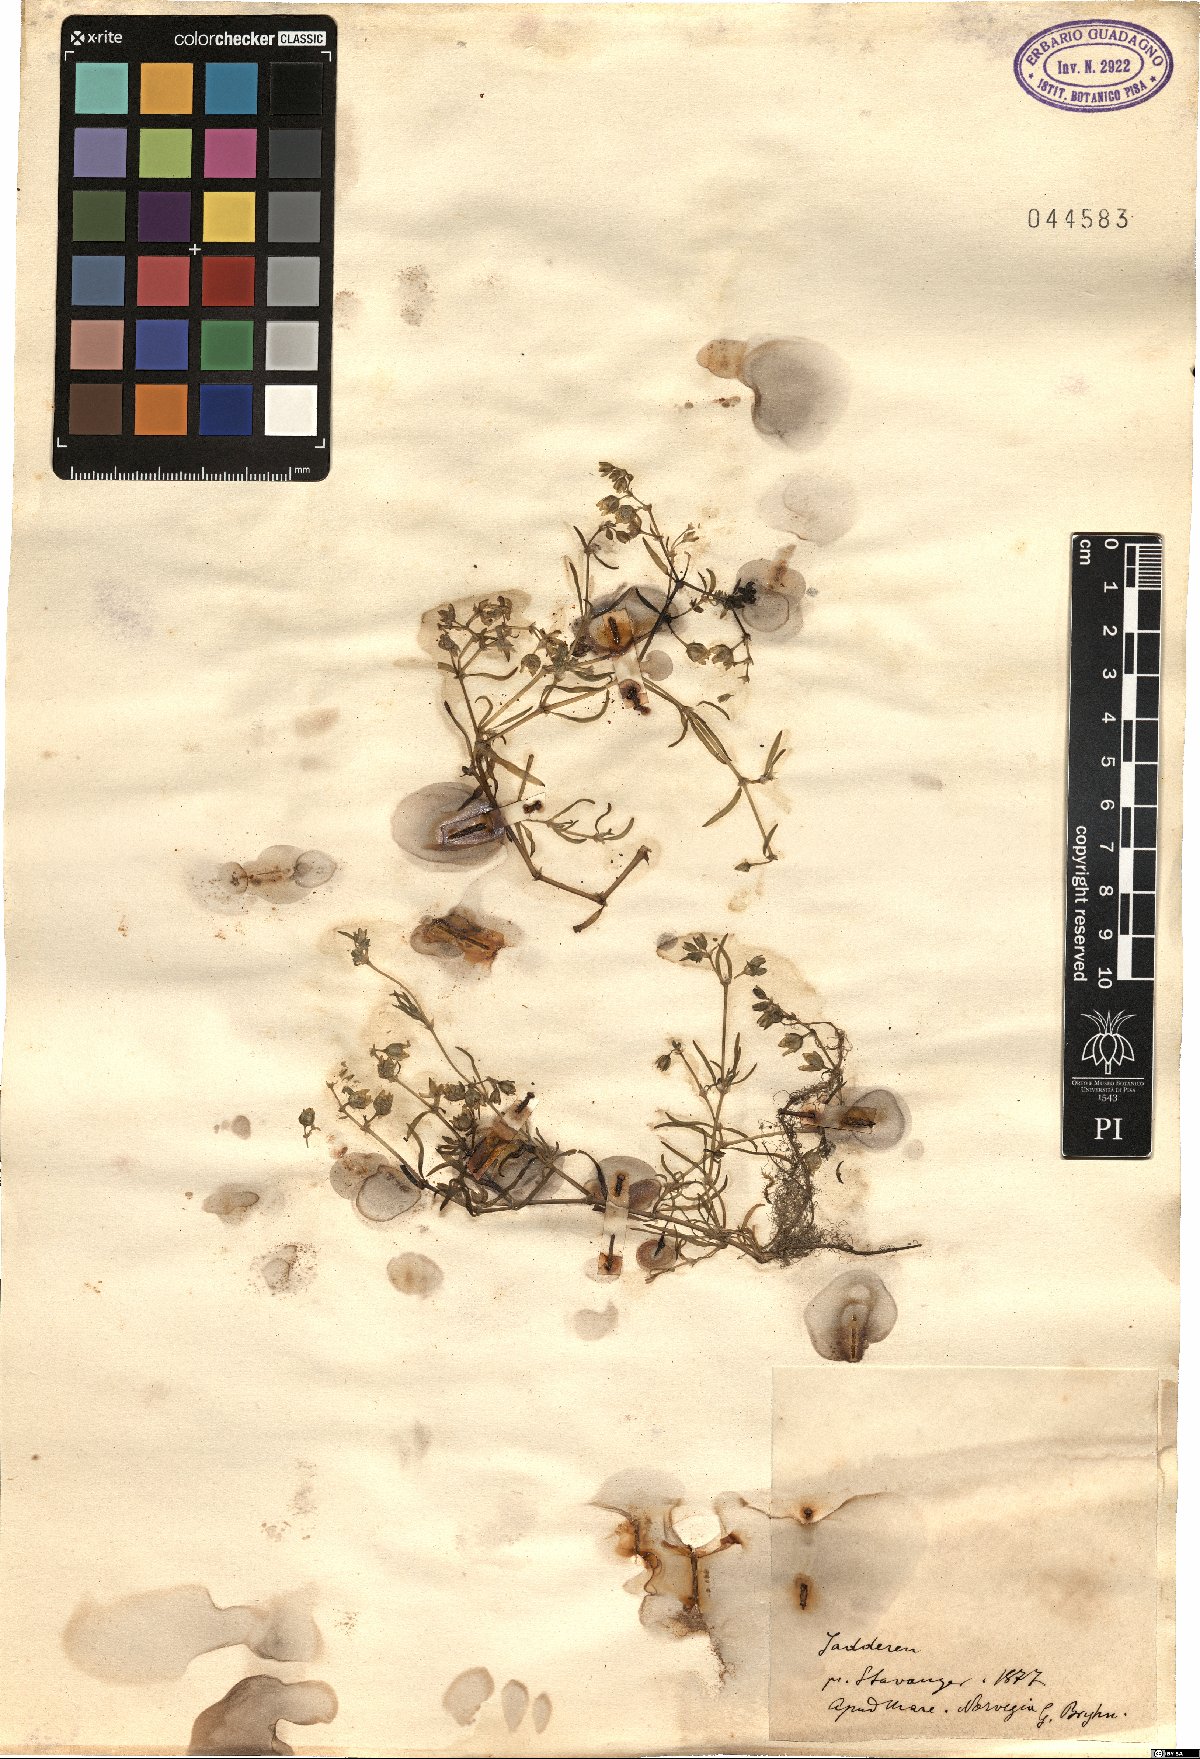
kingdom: Plantae
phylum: Tracheophyta
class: Magnoliopsida
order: Caryophyllales
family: Caryophyllaceae
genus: Spergularia
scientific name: Spergularia
